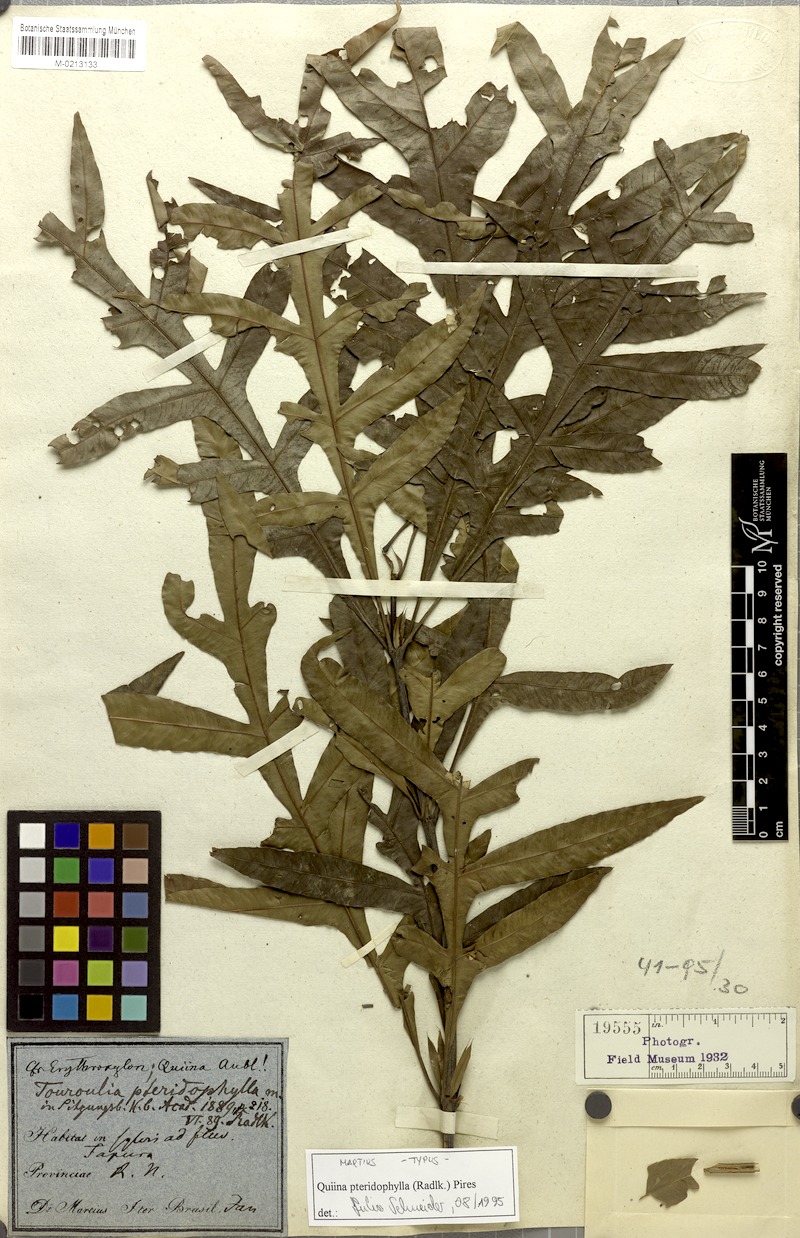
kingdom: Plantae
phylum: Tracheophyta
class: Magnoliopsida
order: Malpighiales
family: Quiinaceae
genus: Quiina
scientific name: Quiina pteridophylla
